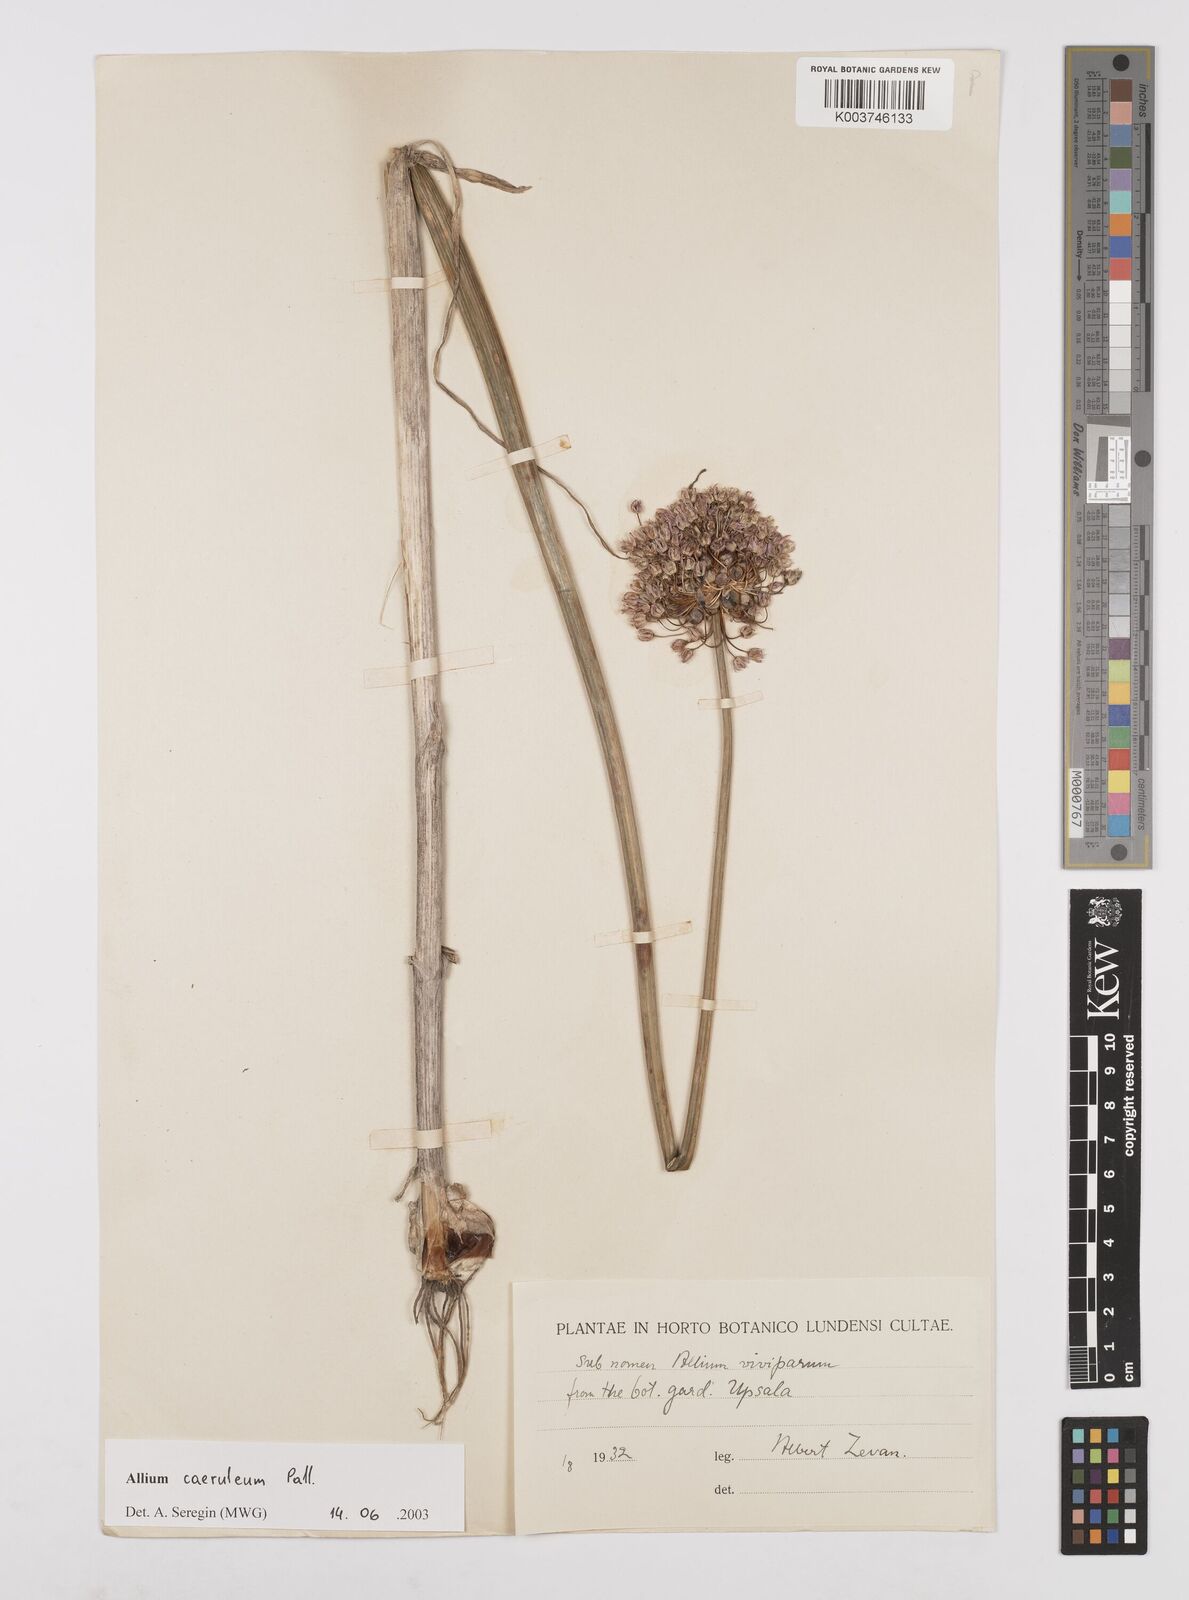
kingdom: Plantae
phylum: Tracheophyta
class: Liliopsida
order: Asparagales
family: Amaryllidaceae
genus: Allium
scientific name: Allium caeruleum
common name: Blue-of-the-heavens
